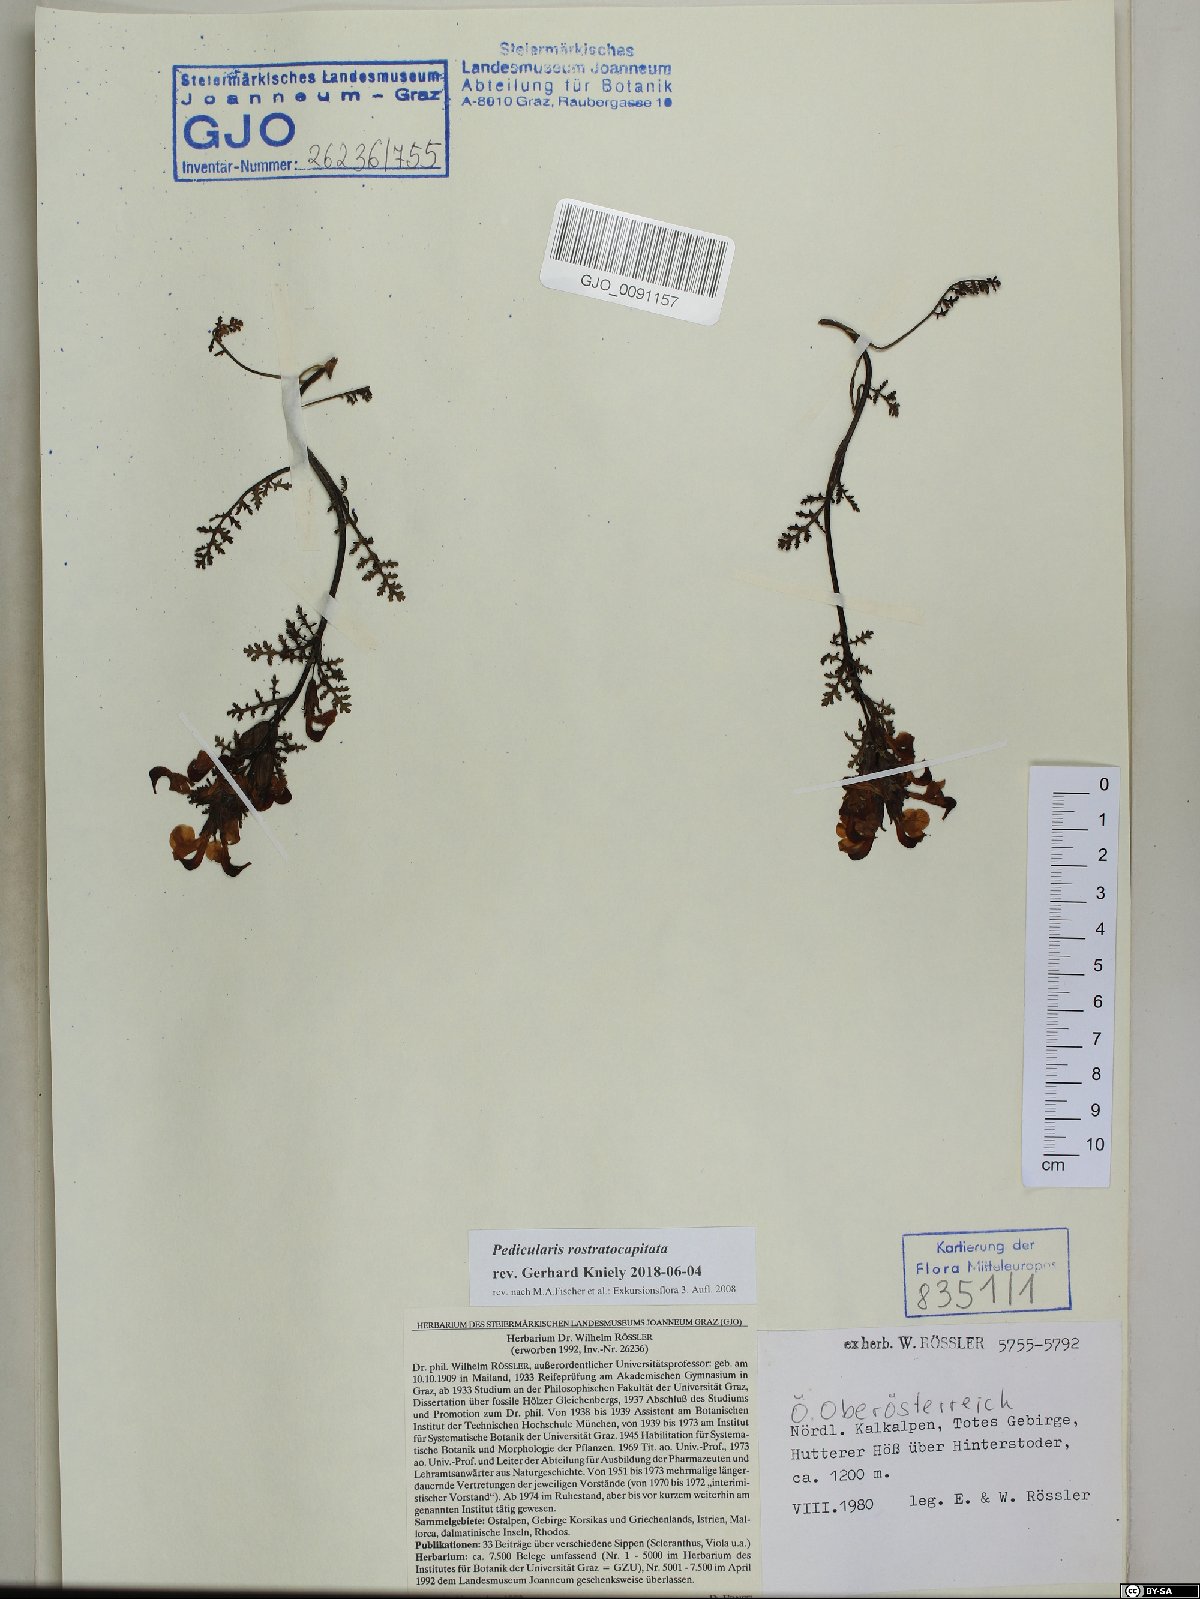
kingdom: Plantae
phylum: Tracheophyta
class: Magnoliopsida
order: Lamiales
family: Orobanchaceae
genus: Pedicularis
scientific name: Pedicularis rostratocapitata
